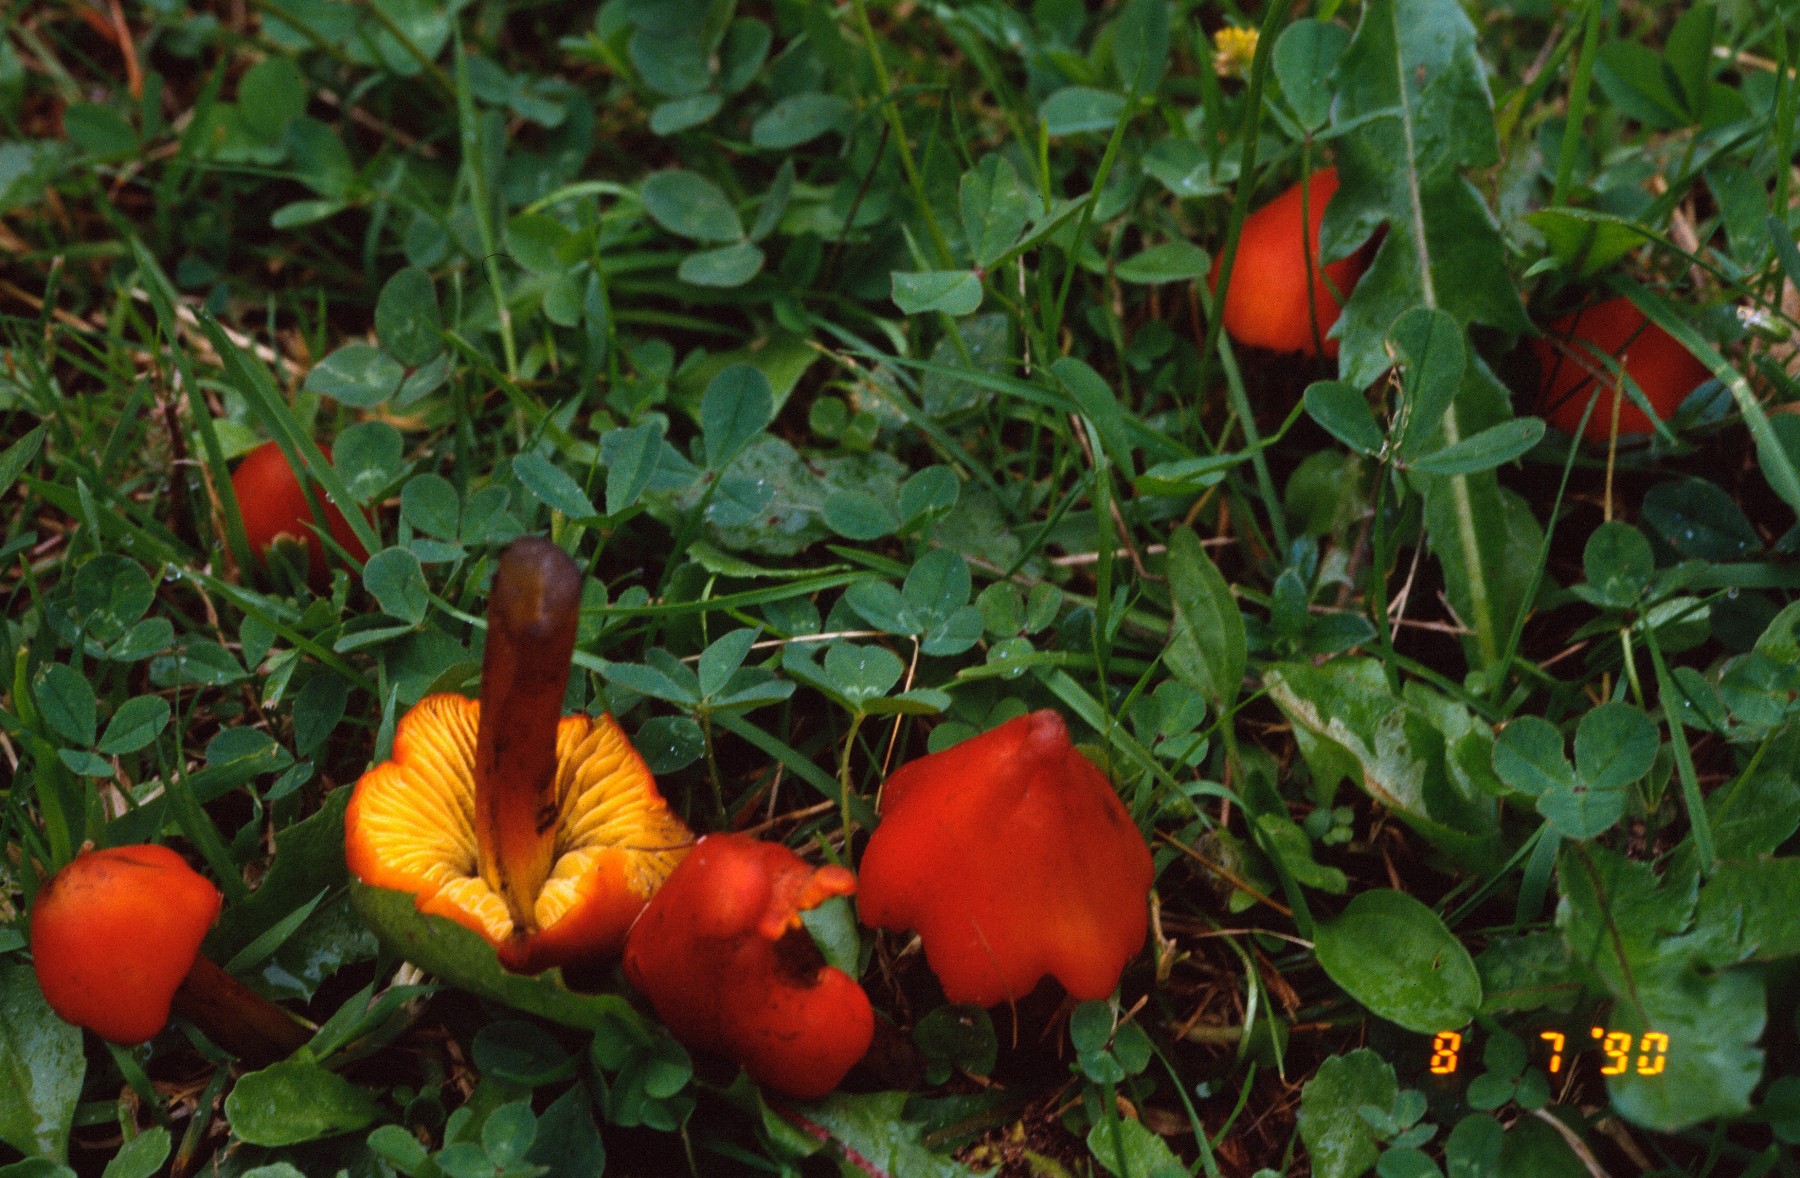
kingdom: Fungi
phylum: Basidiomycota
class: Agaricomycetes
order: Agaricales
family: Hygrophoraceae
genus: Hygrocybe
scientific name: Hygrocybe conica
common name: kegle-vokshat
